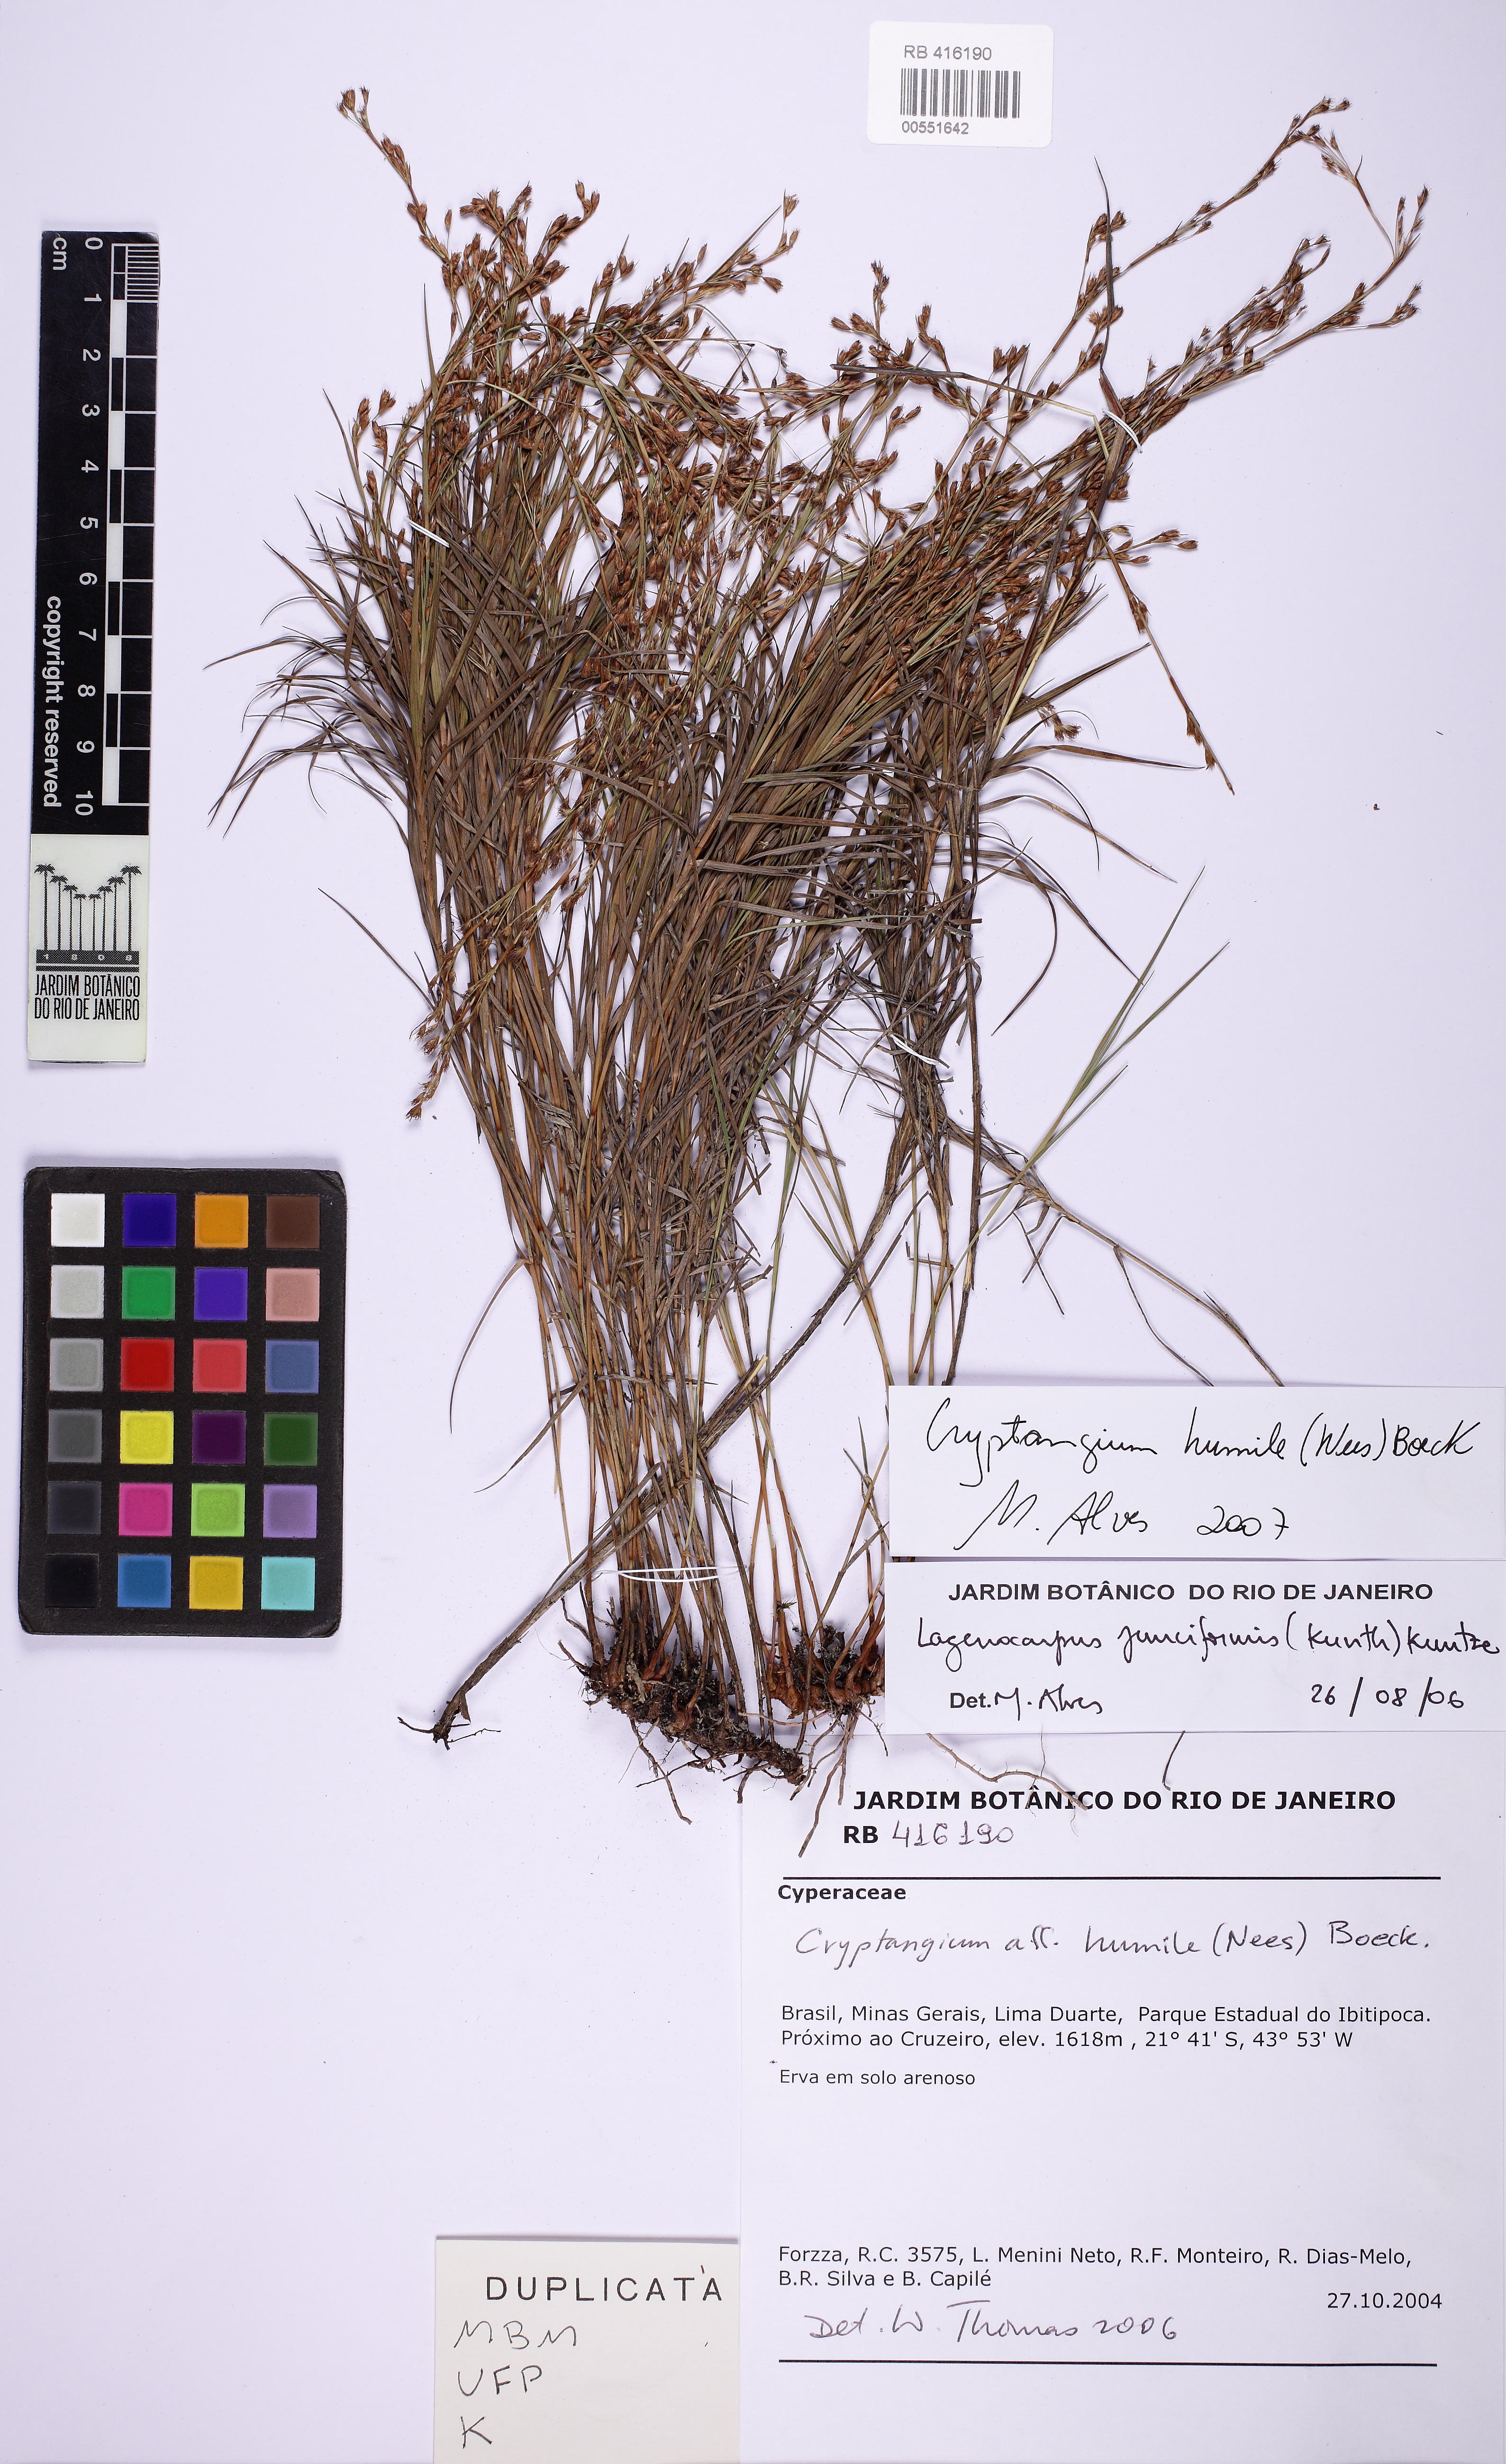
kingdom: Plantae
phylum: Tracheophyta
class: Liliopsida
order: Poales
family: Cyperaceae
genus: Krenakia
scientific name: Krenakia humilis
